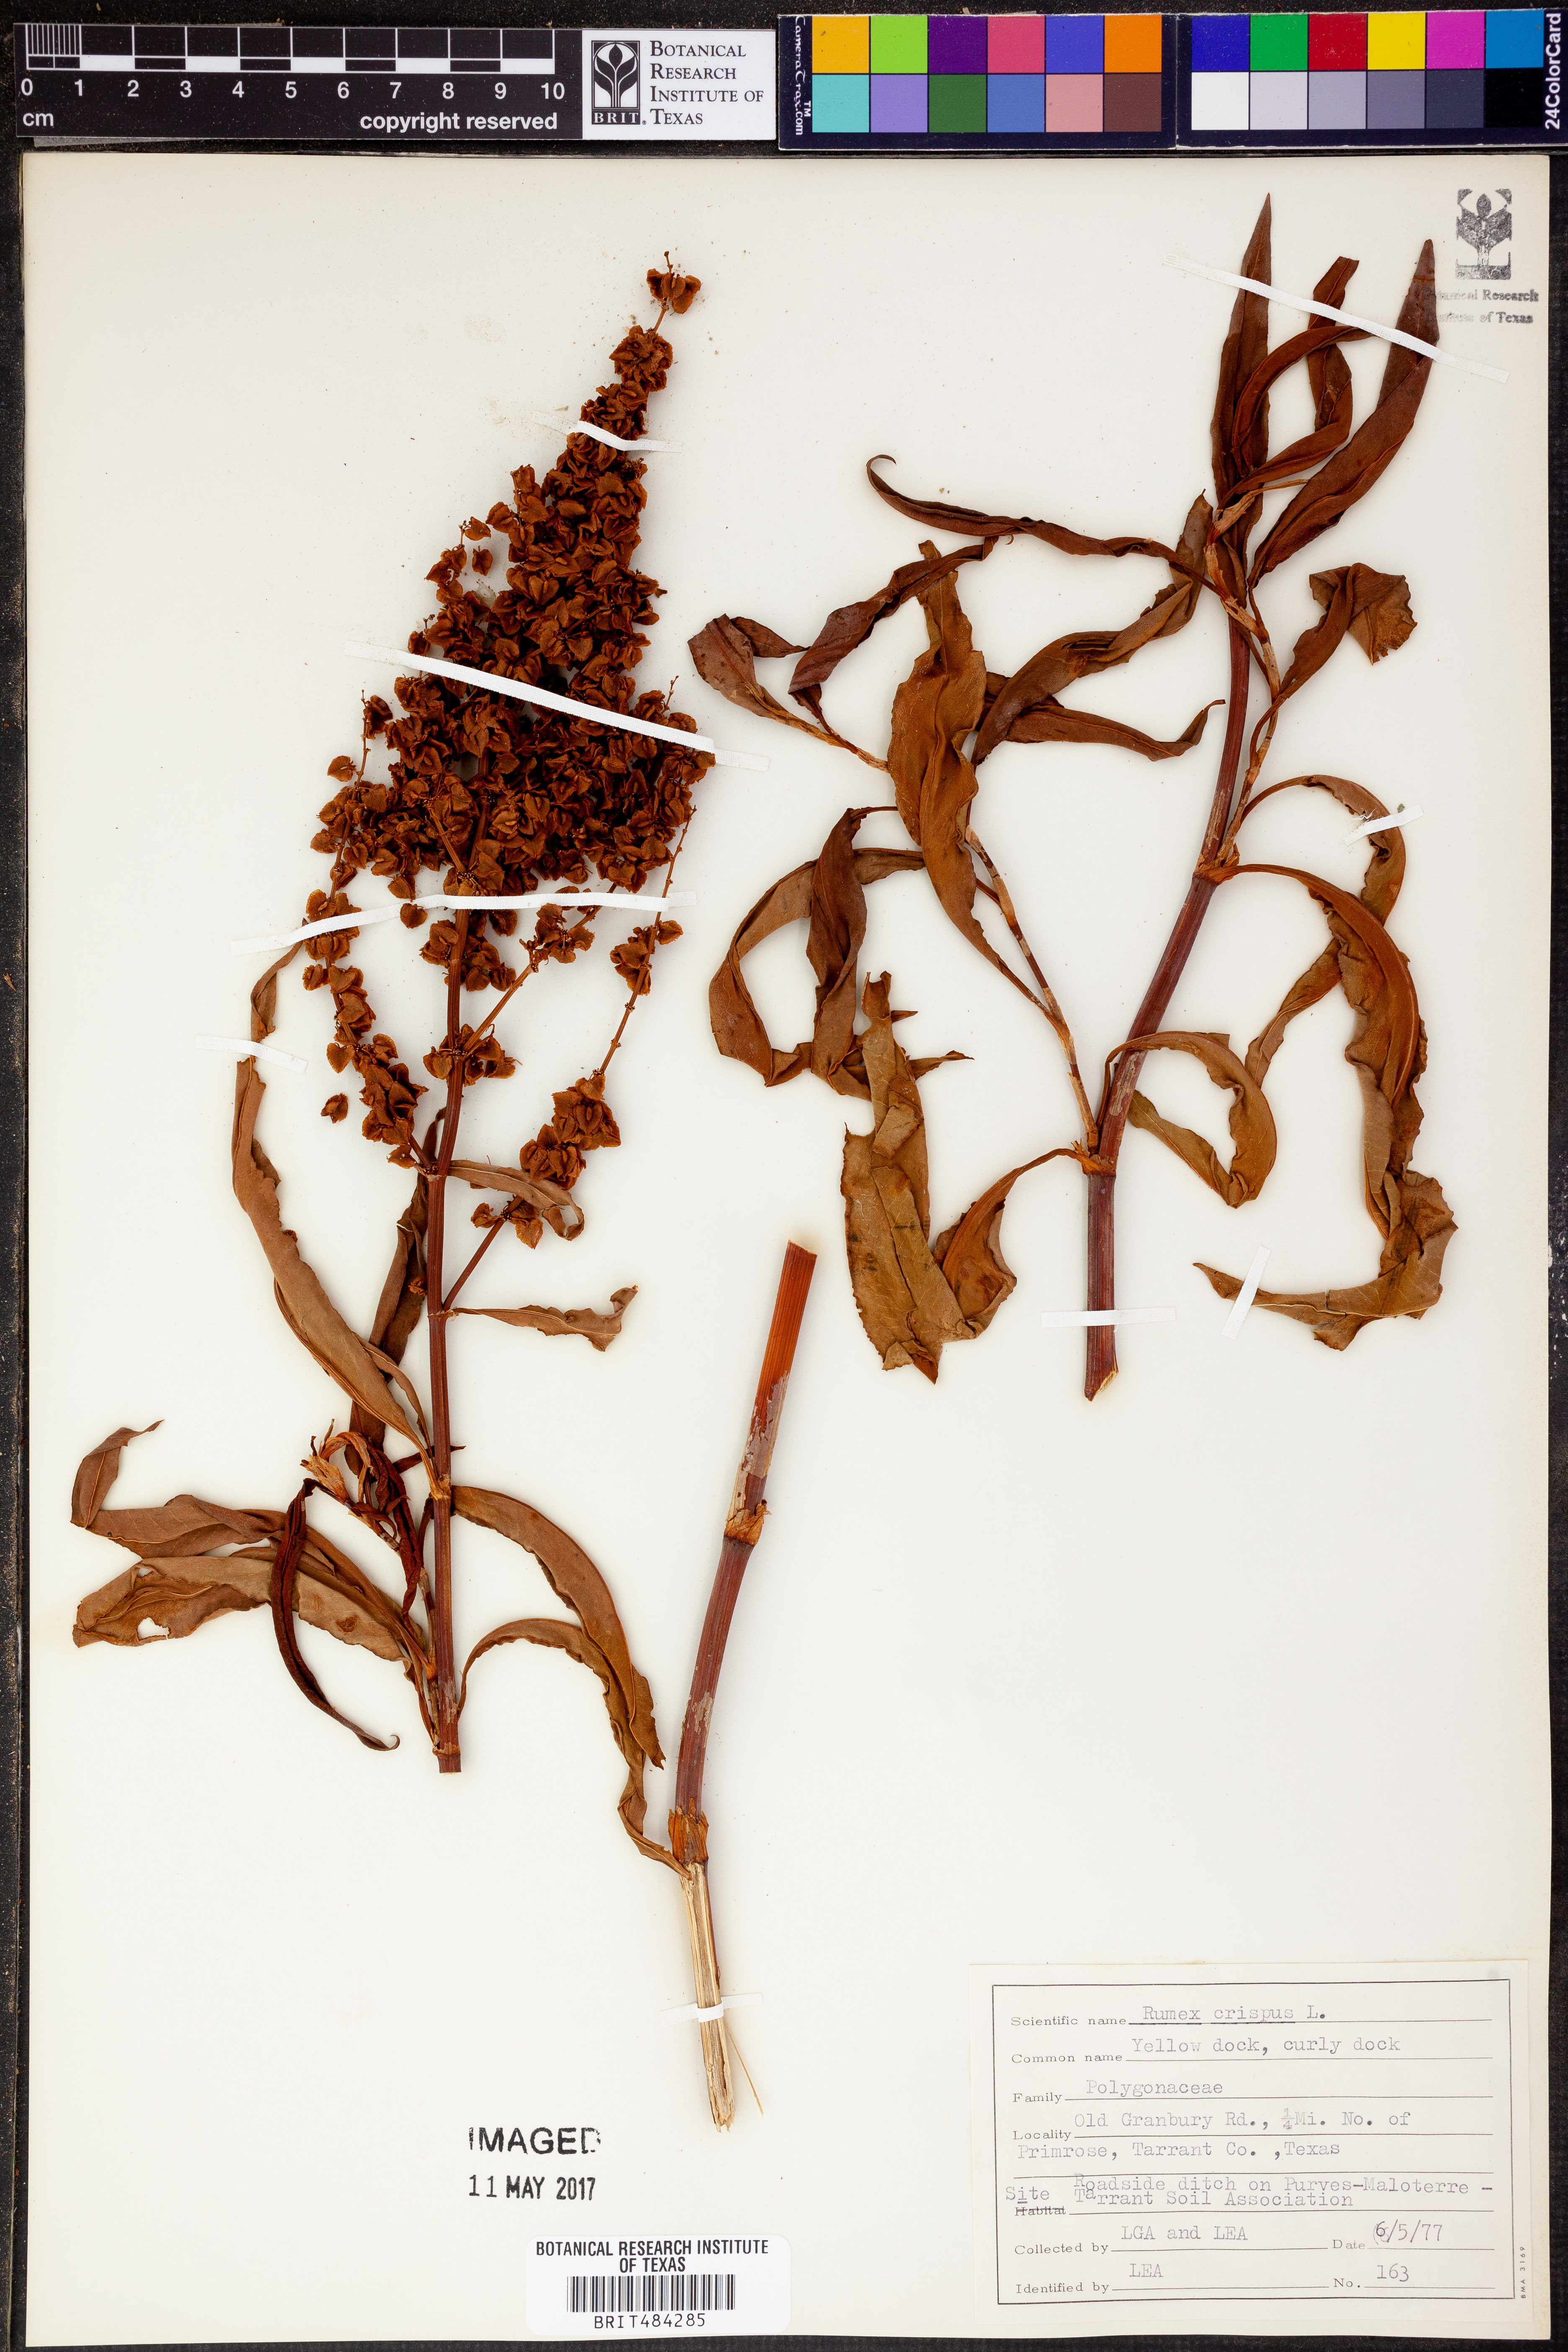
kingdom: Plantae
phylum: Tracheophyta
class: Magnoliopsida
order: Caryophyllales
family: Polygonaceae
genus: Rumex
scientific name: Rumex crispus
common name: Curled dock
